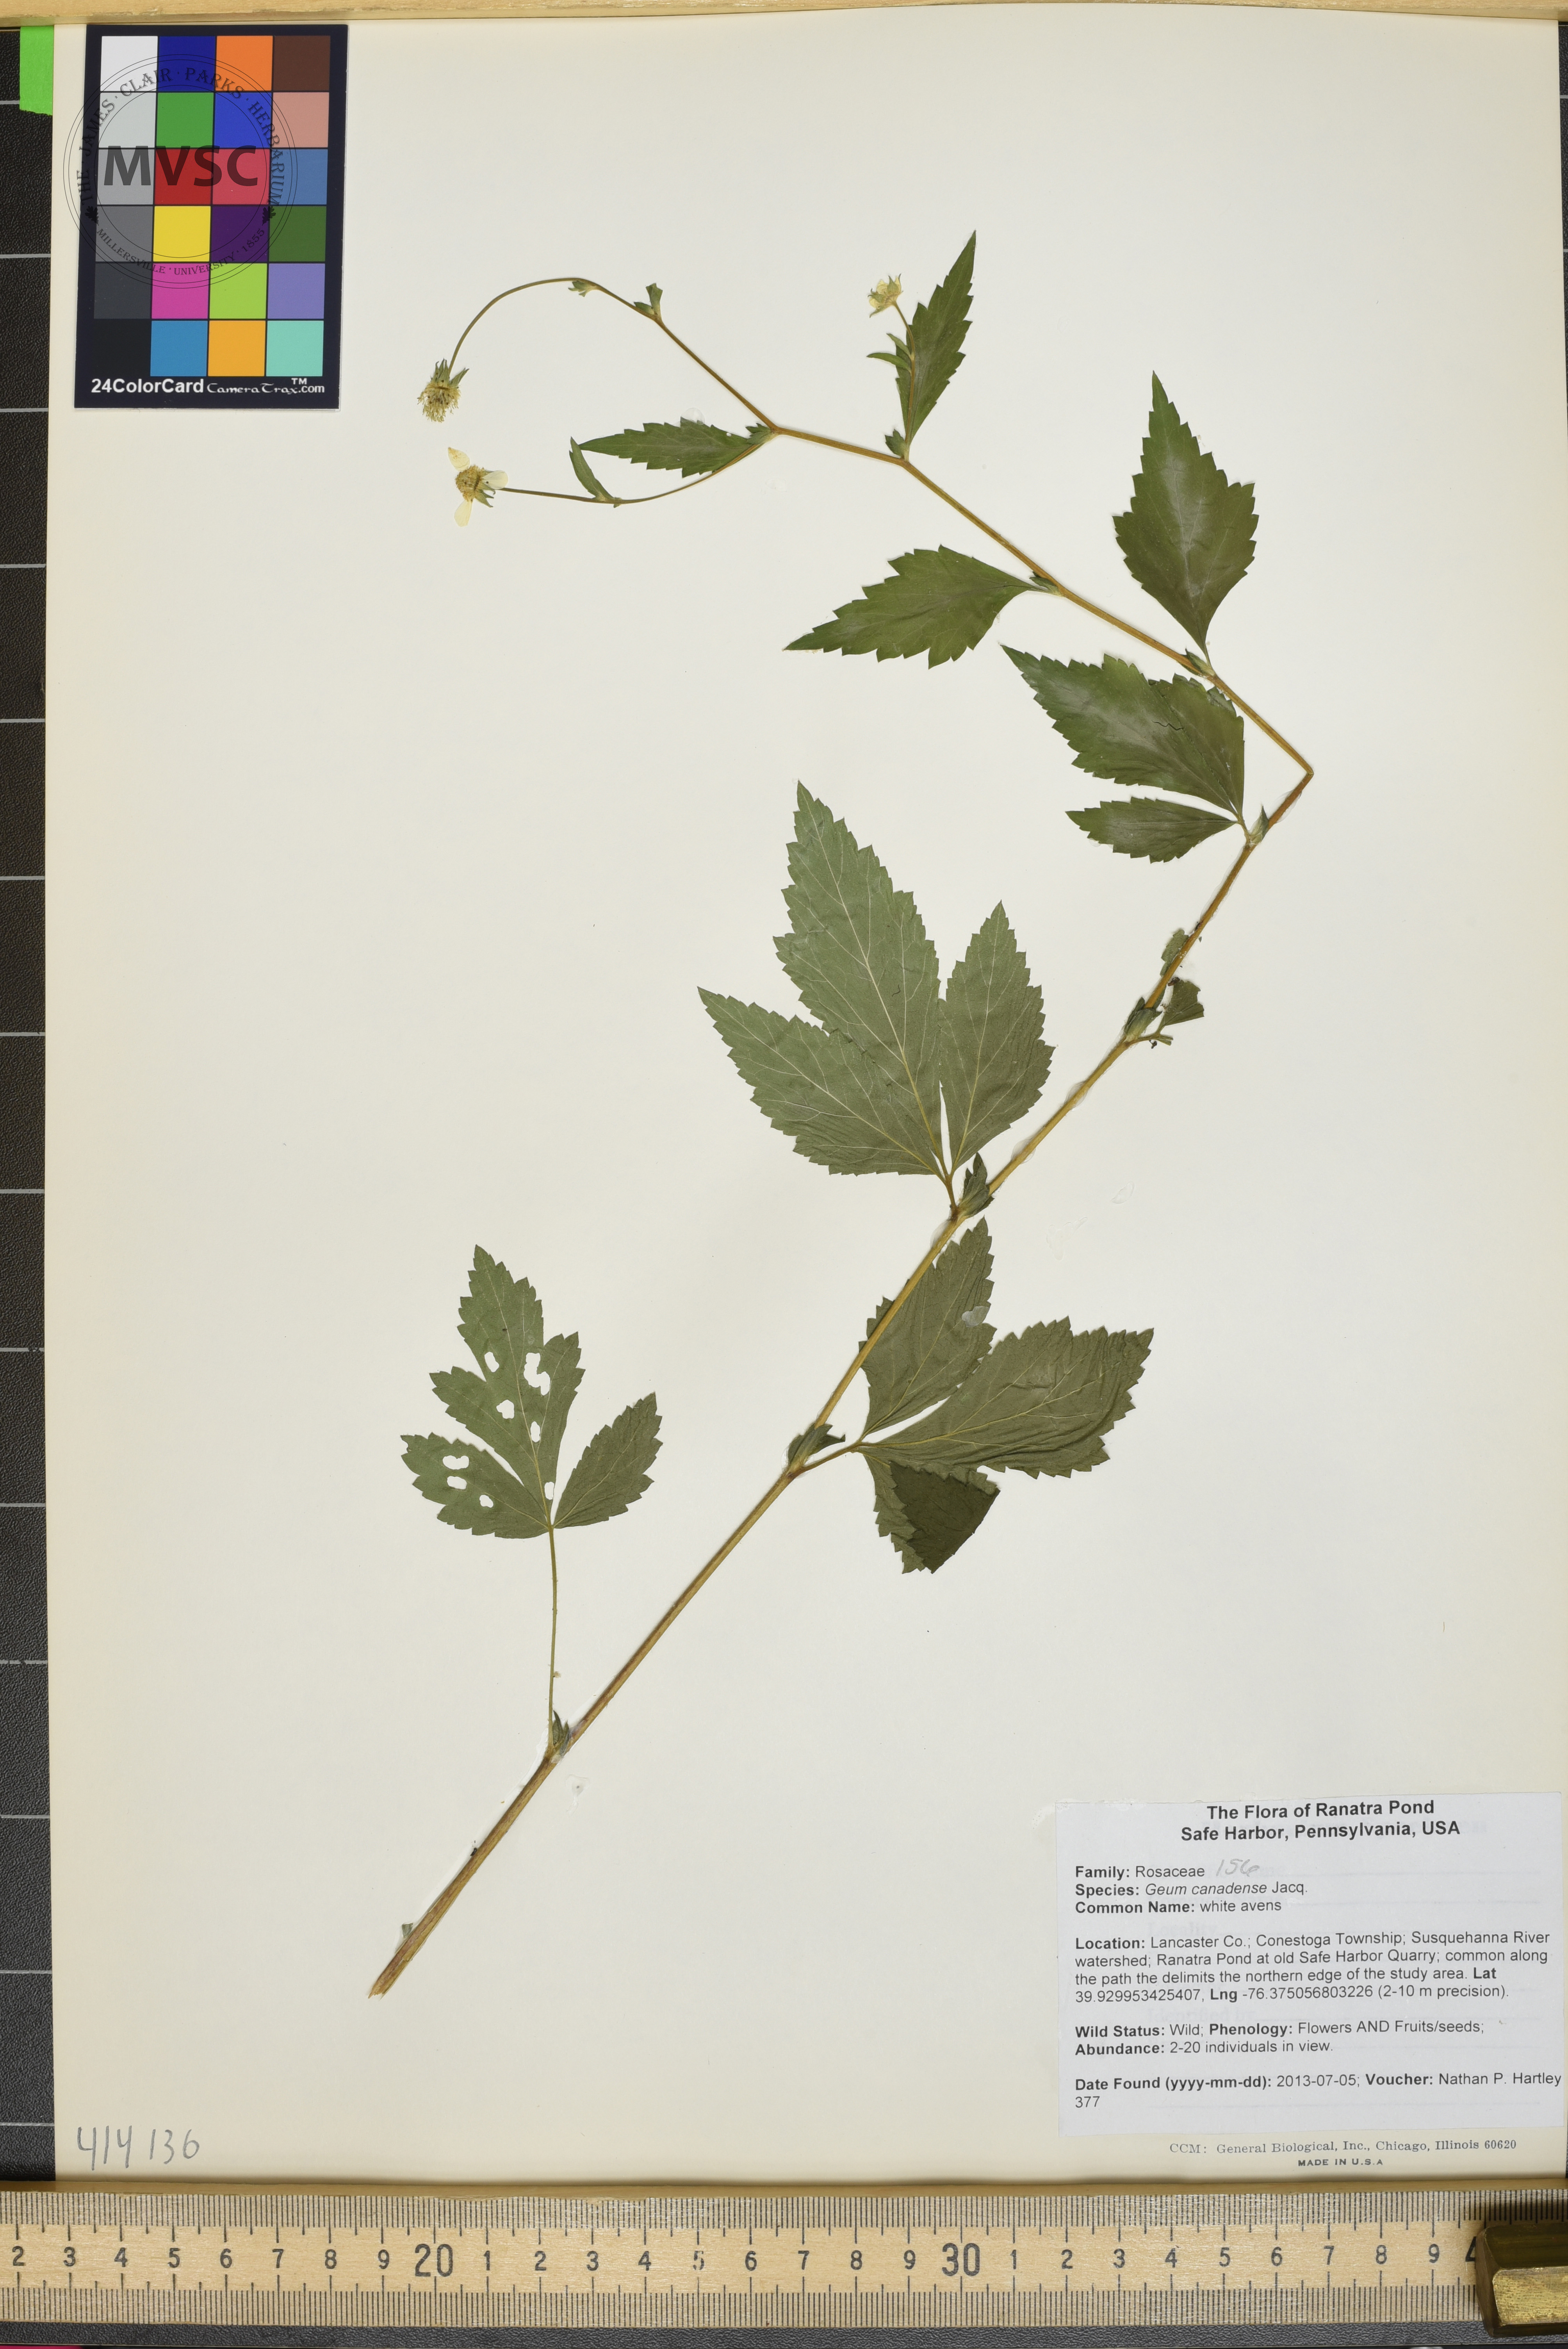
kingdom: Plantae
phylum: Tracheophyta
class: Magnoliopsida
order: Rosales
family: Rosaceae
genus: Geum
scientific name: Geum canadense
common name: white avens
